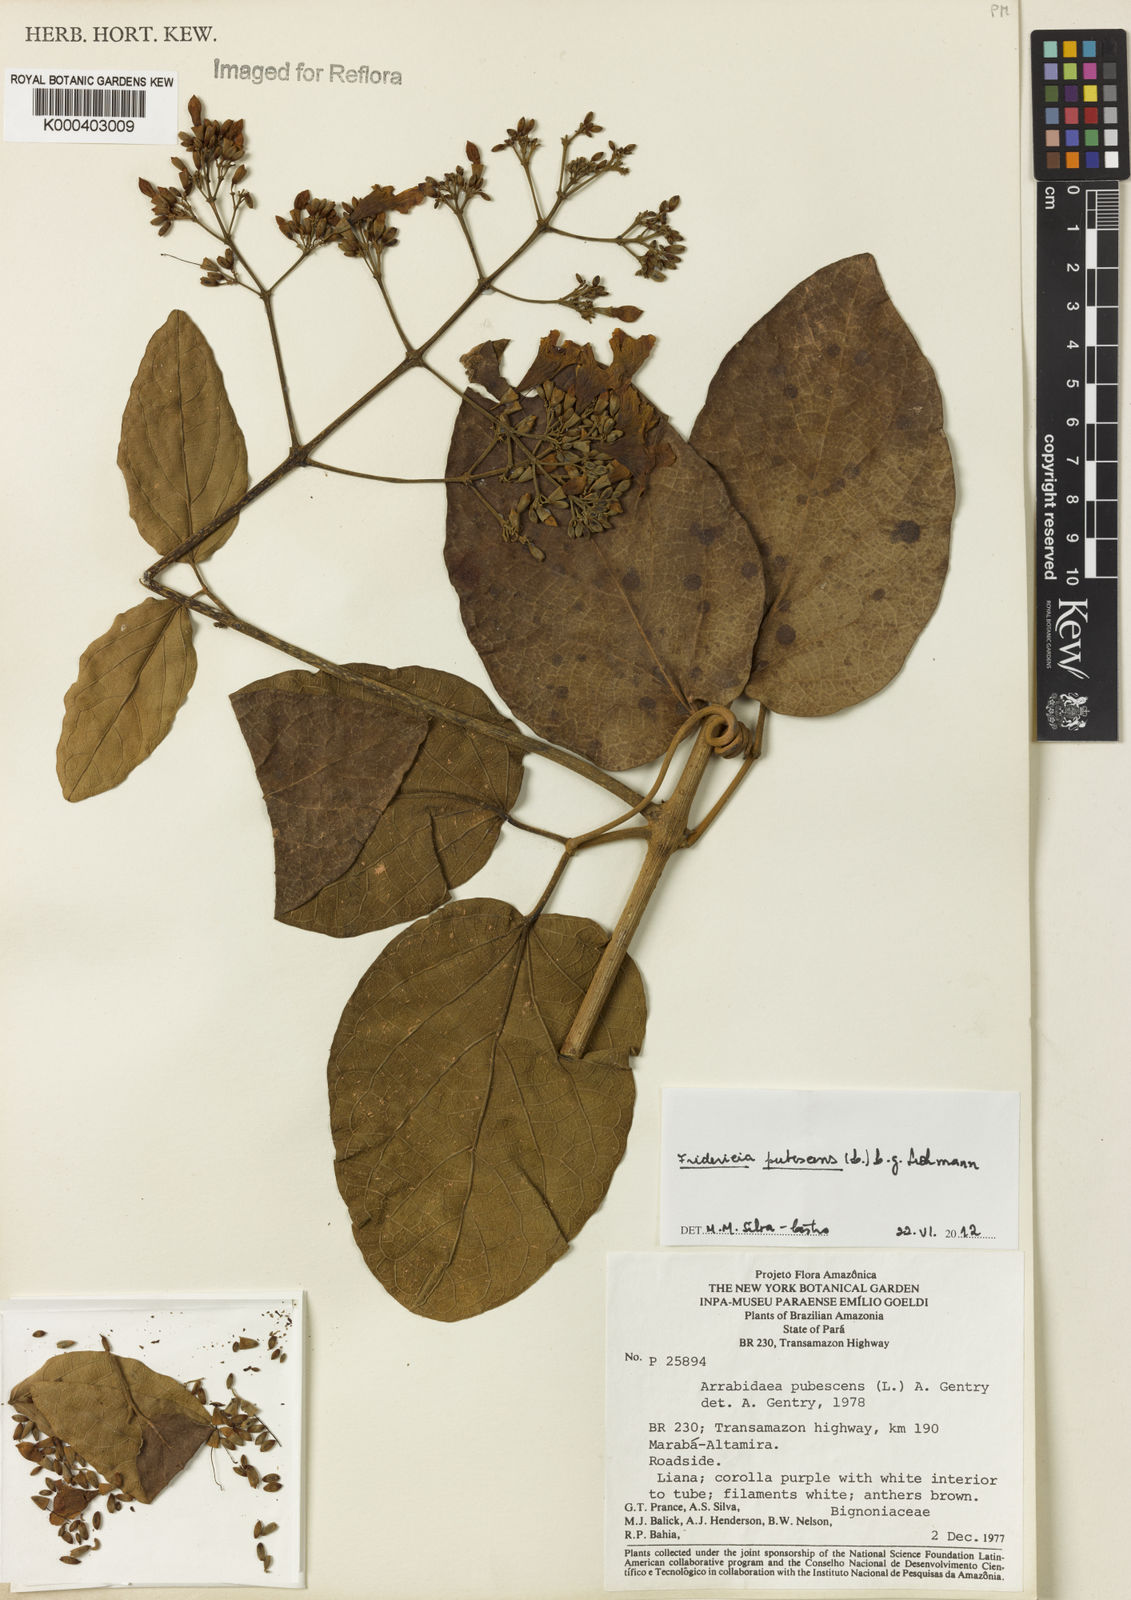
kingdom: Plantae
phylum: Tracheophyta
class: Magnoliopsida
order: Lamiales
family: Bignoniaceae
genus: Fridericia
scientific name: Fridericia pubescens
